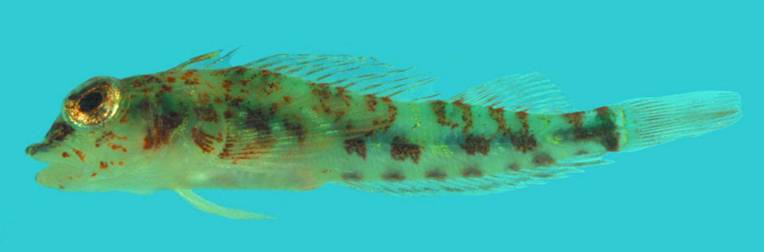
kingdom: Animalia
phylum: Chordata
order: Perciformes
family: Tripterygiidae
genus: Helcogramma
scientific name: Helcogramma rosea
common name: Rosy triplefin
